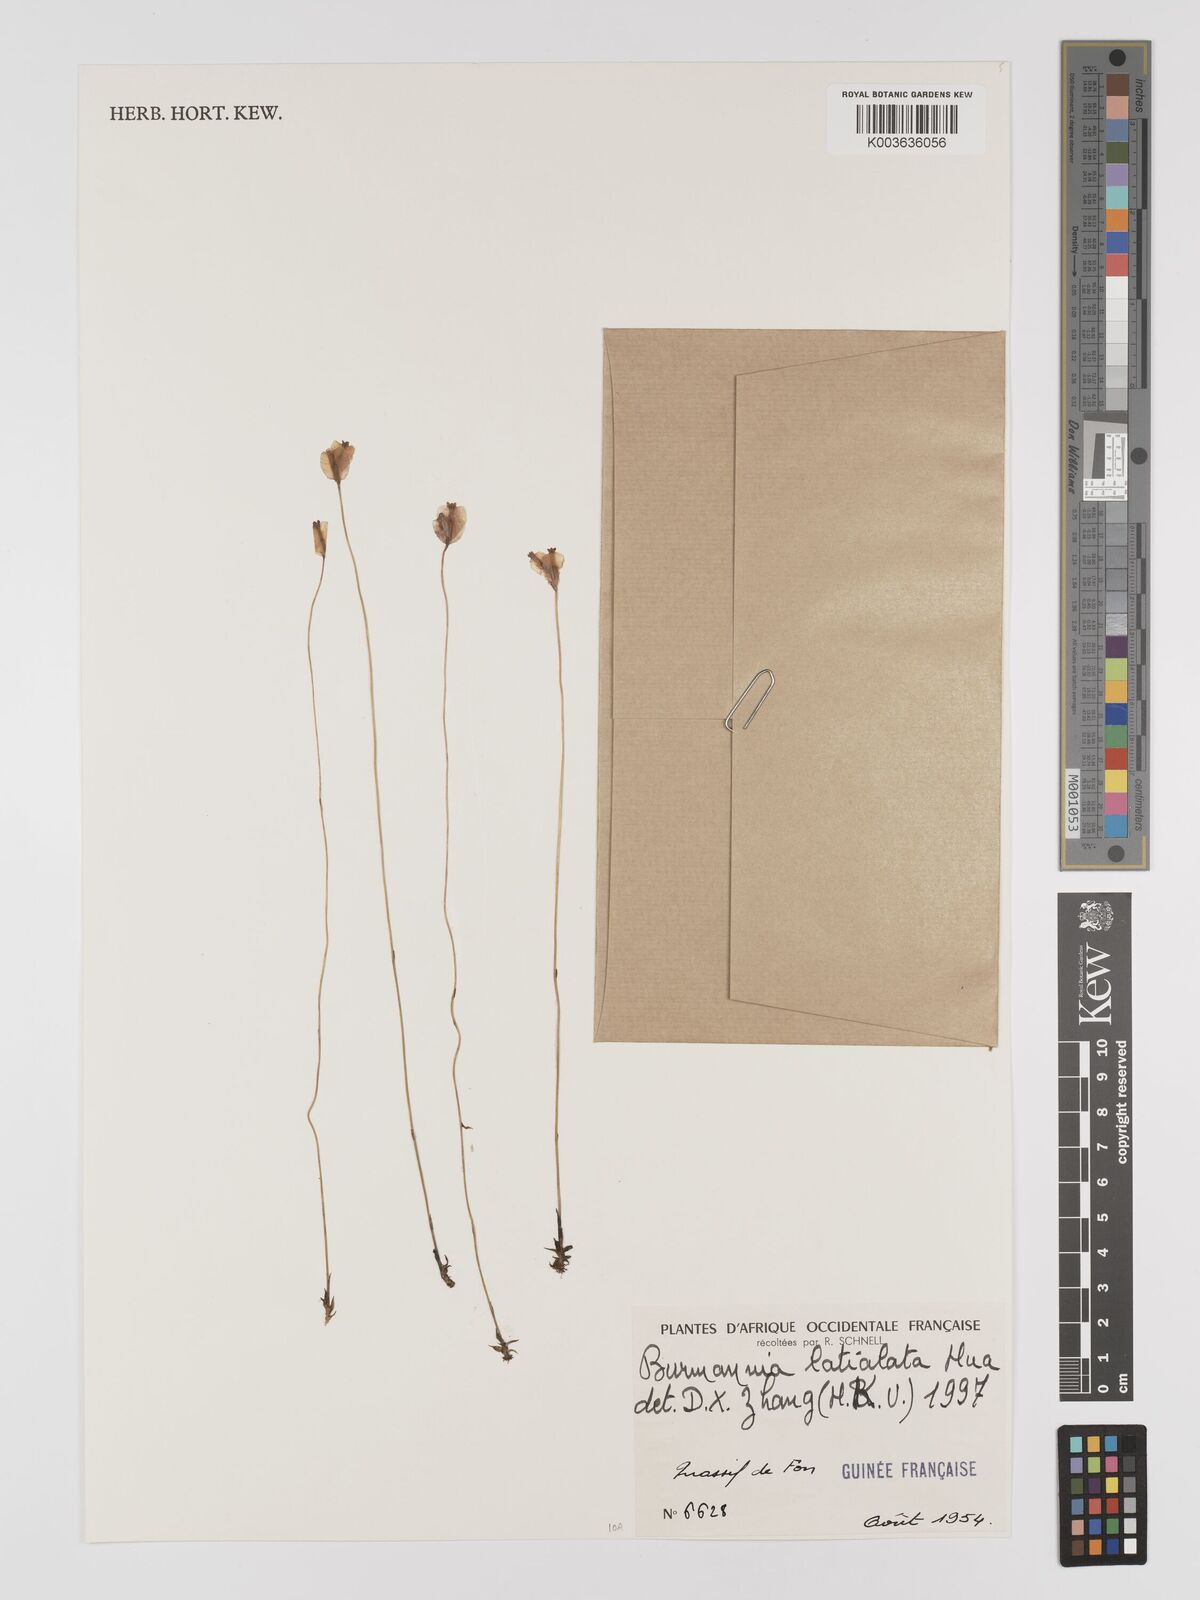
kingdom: Plantae
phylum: Tracheophyta
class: Liliopsida
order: Dioscoreales
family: Burmanniaceae
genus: Burmannia
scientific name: Burmannia madagascariensis
